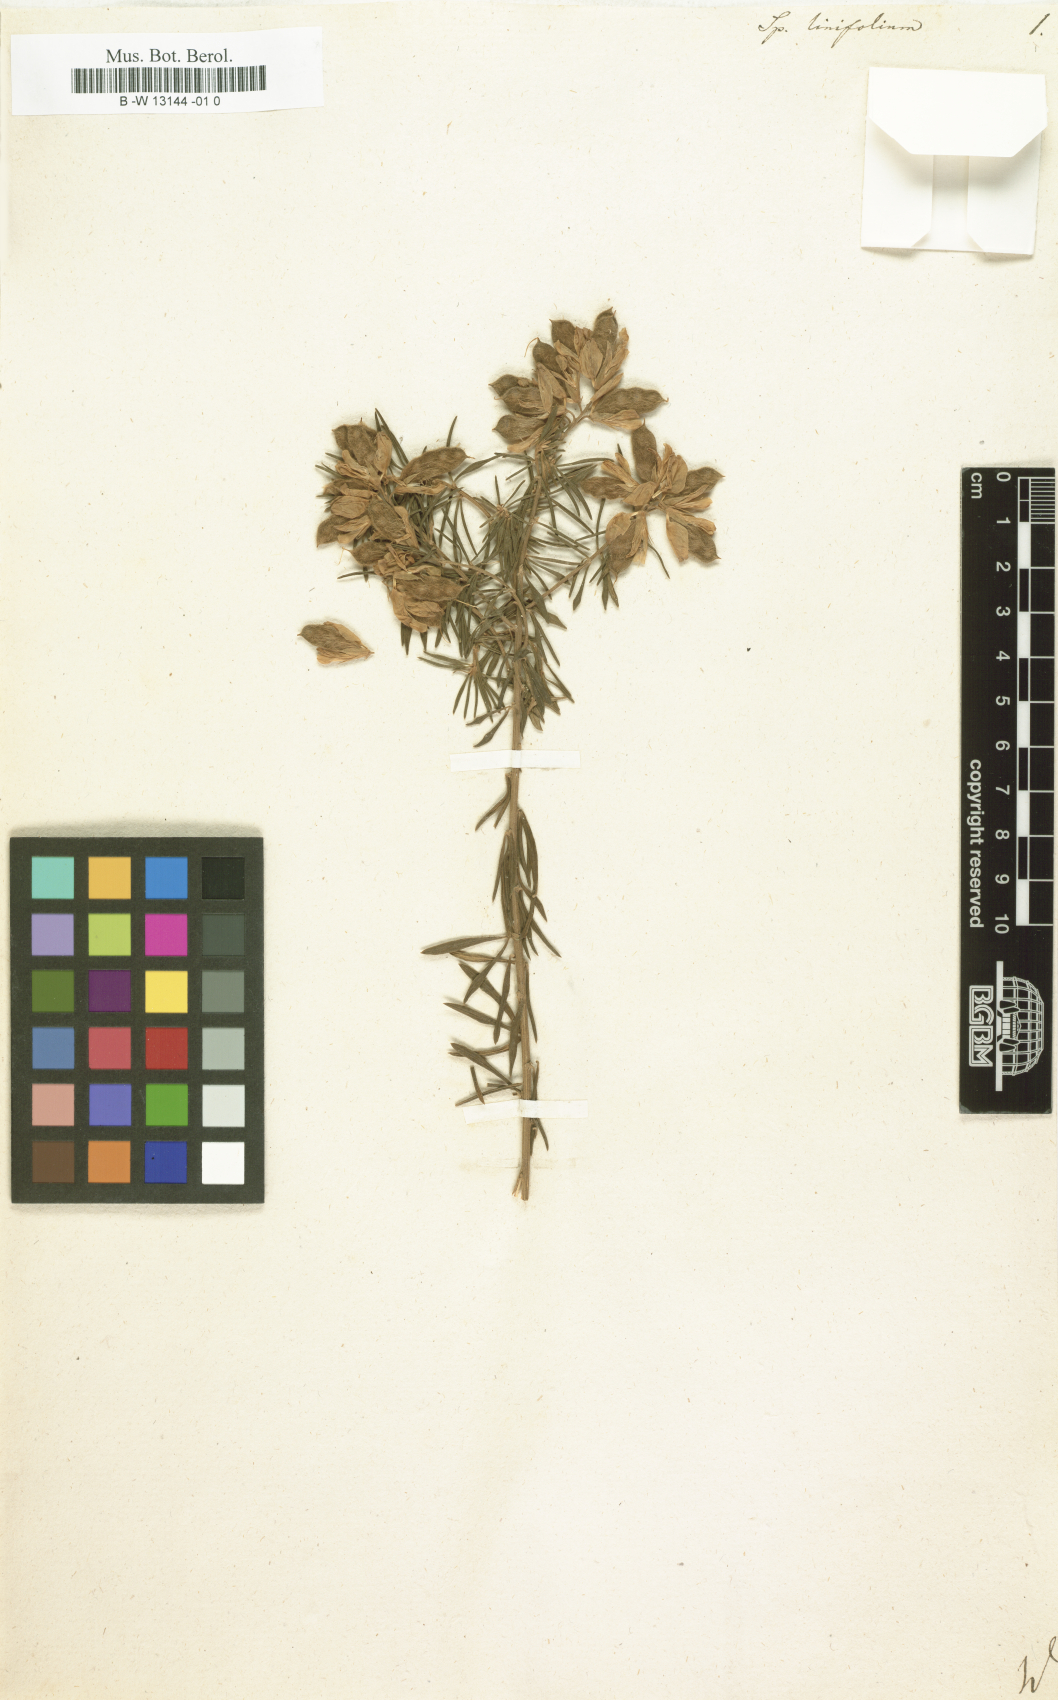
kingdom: Plantae
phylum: Tracheophyta
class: Magnoliopsida
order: Fabales
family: Fabaceae
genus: Genista
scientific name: Genista linifolia
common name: Mediterranean broom
